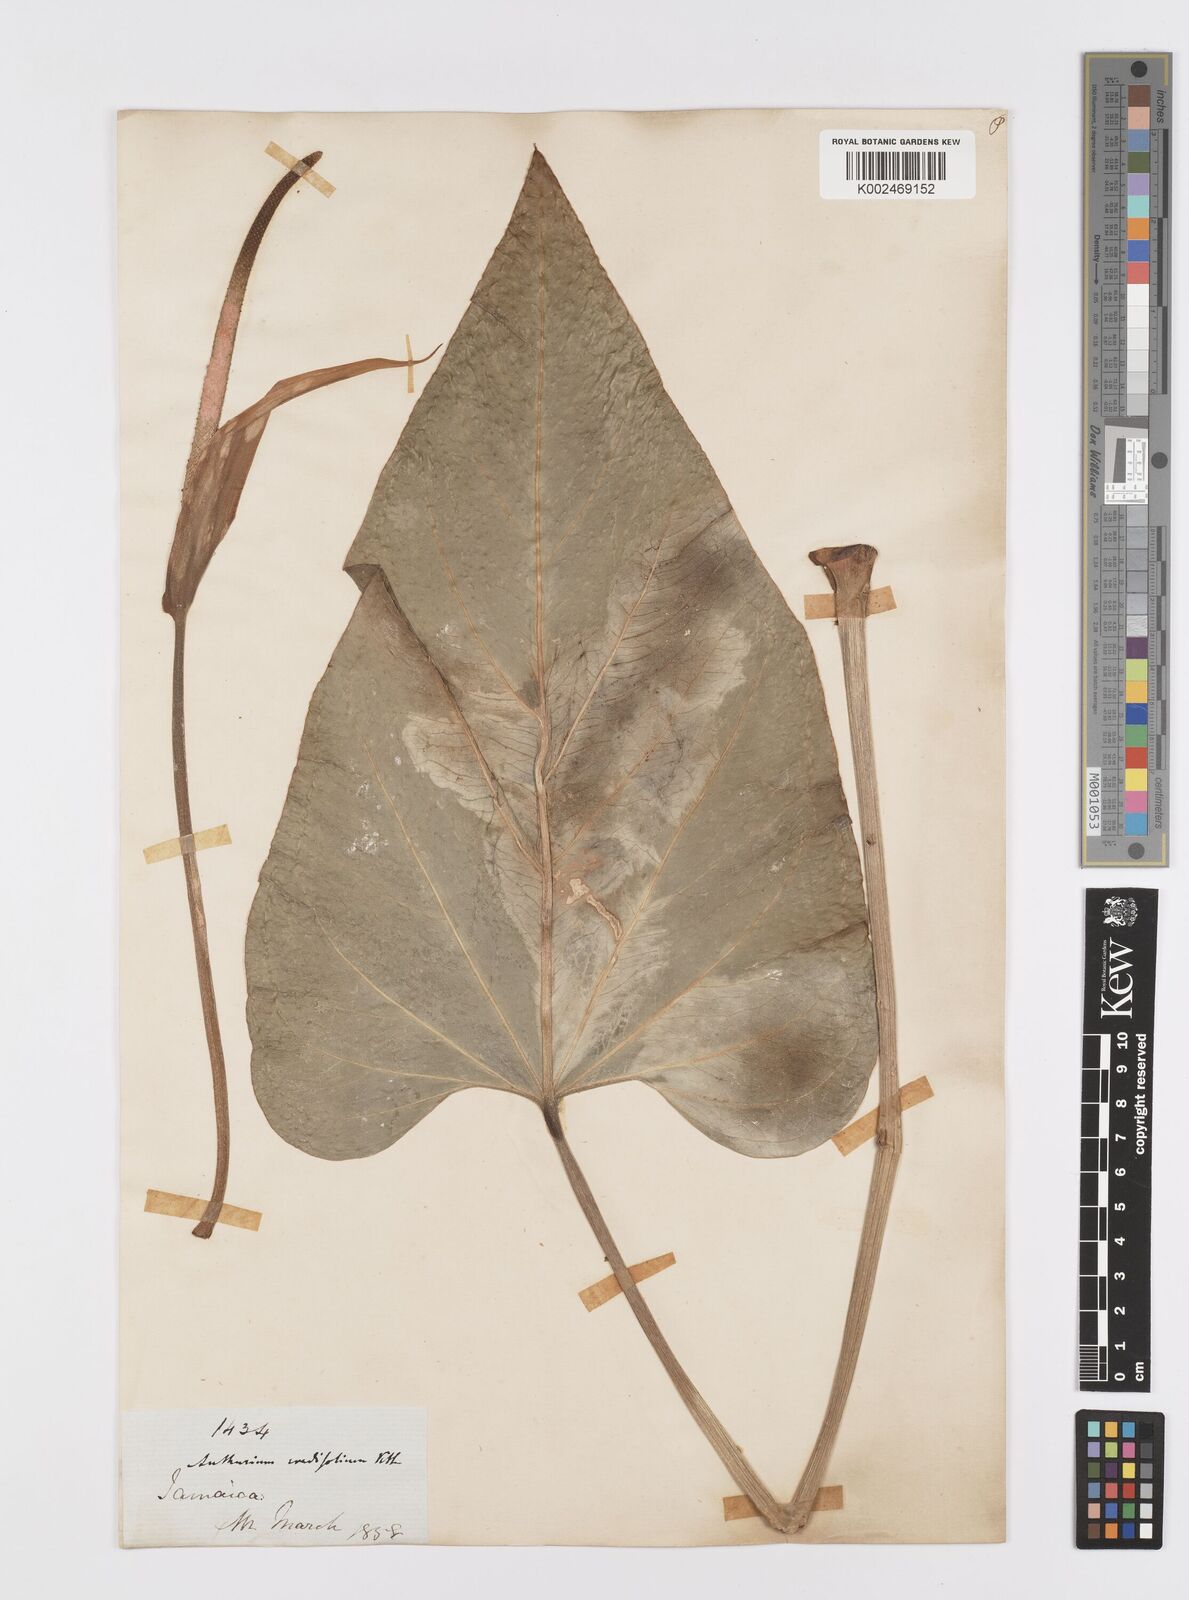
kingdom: Plantae
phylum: Tracheophyta
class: Liliopsida
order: Alismatales
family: Araceae
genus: Anthurium
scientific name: Anthurium grandifolium
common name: Monkey tail
